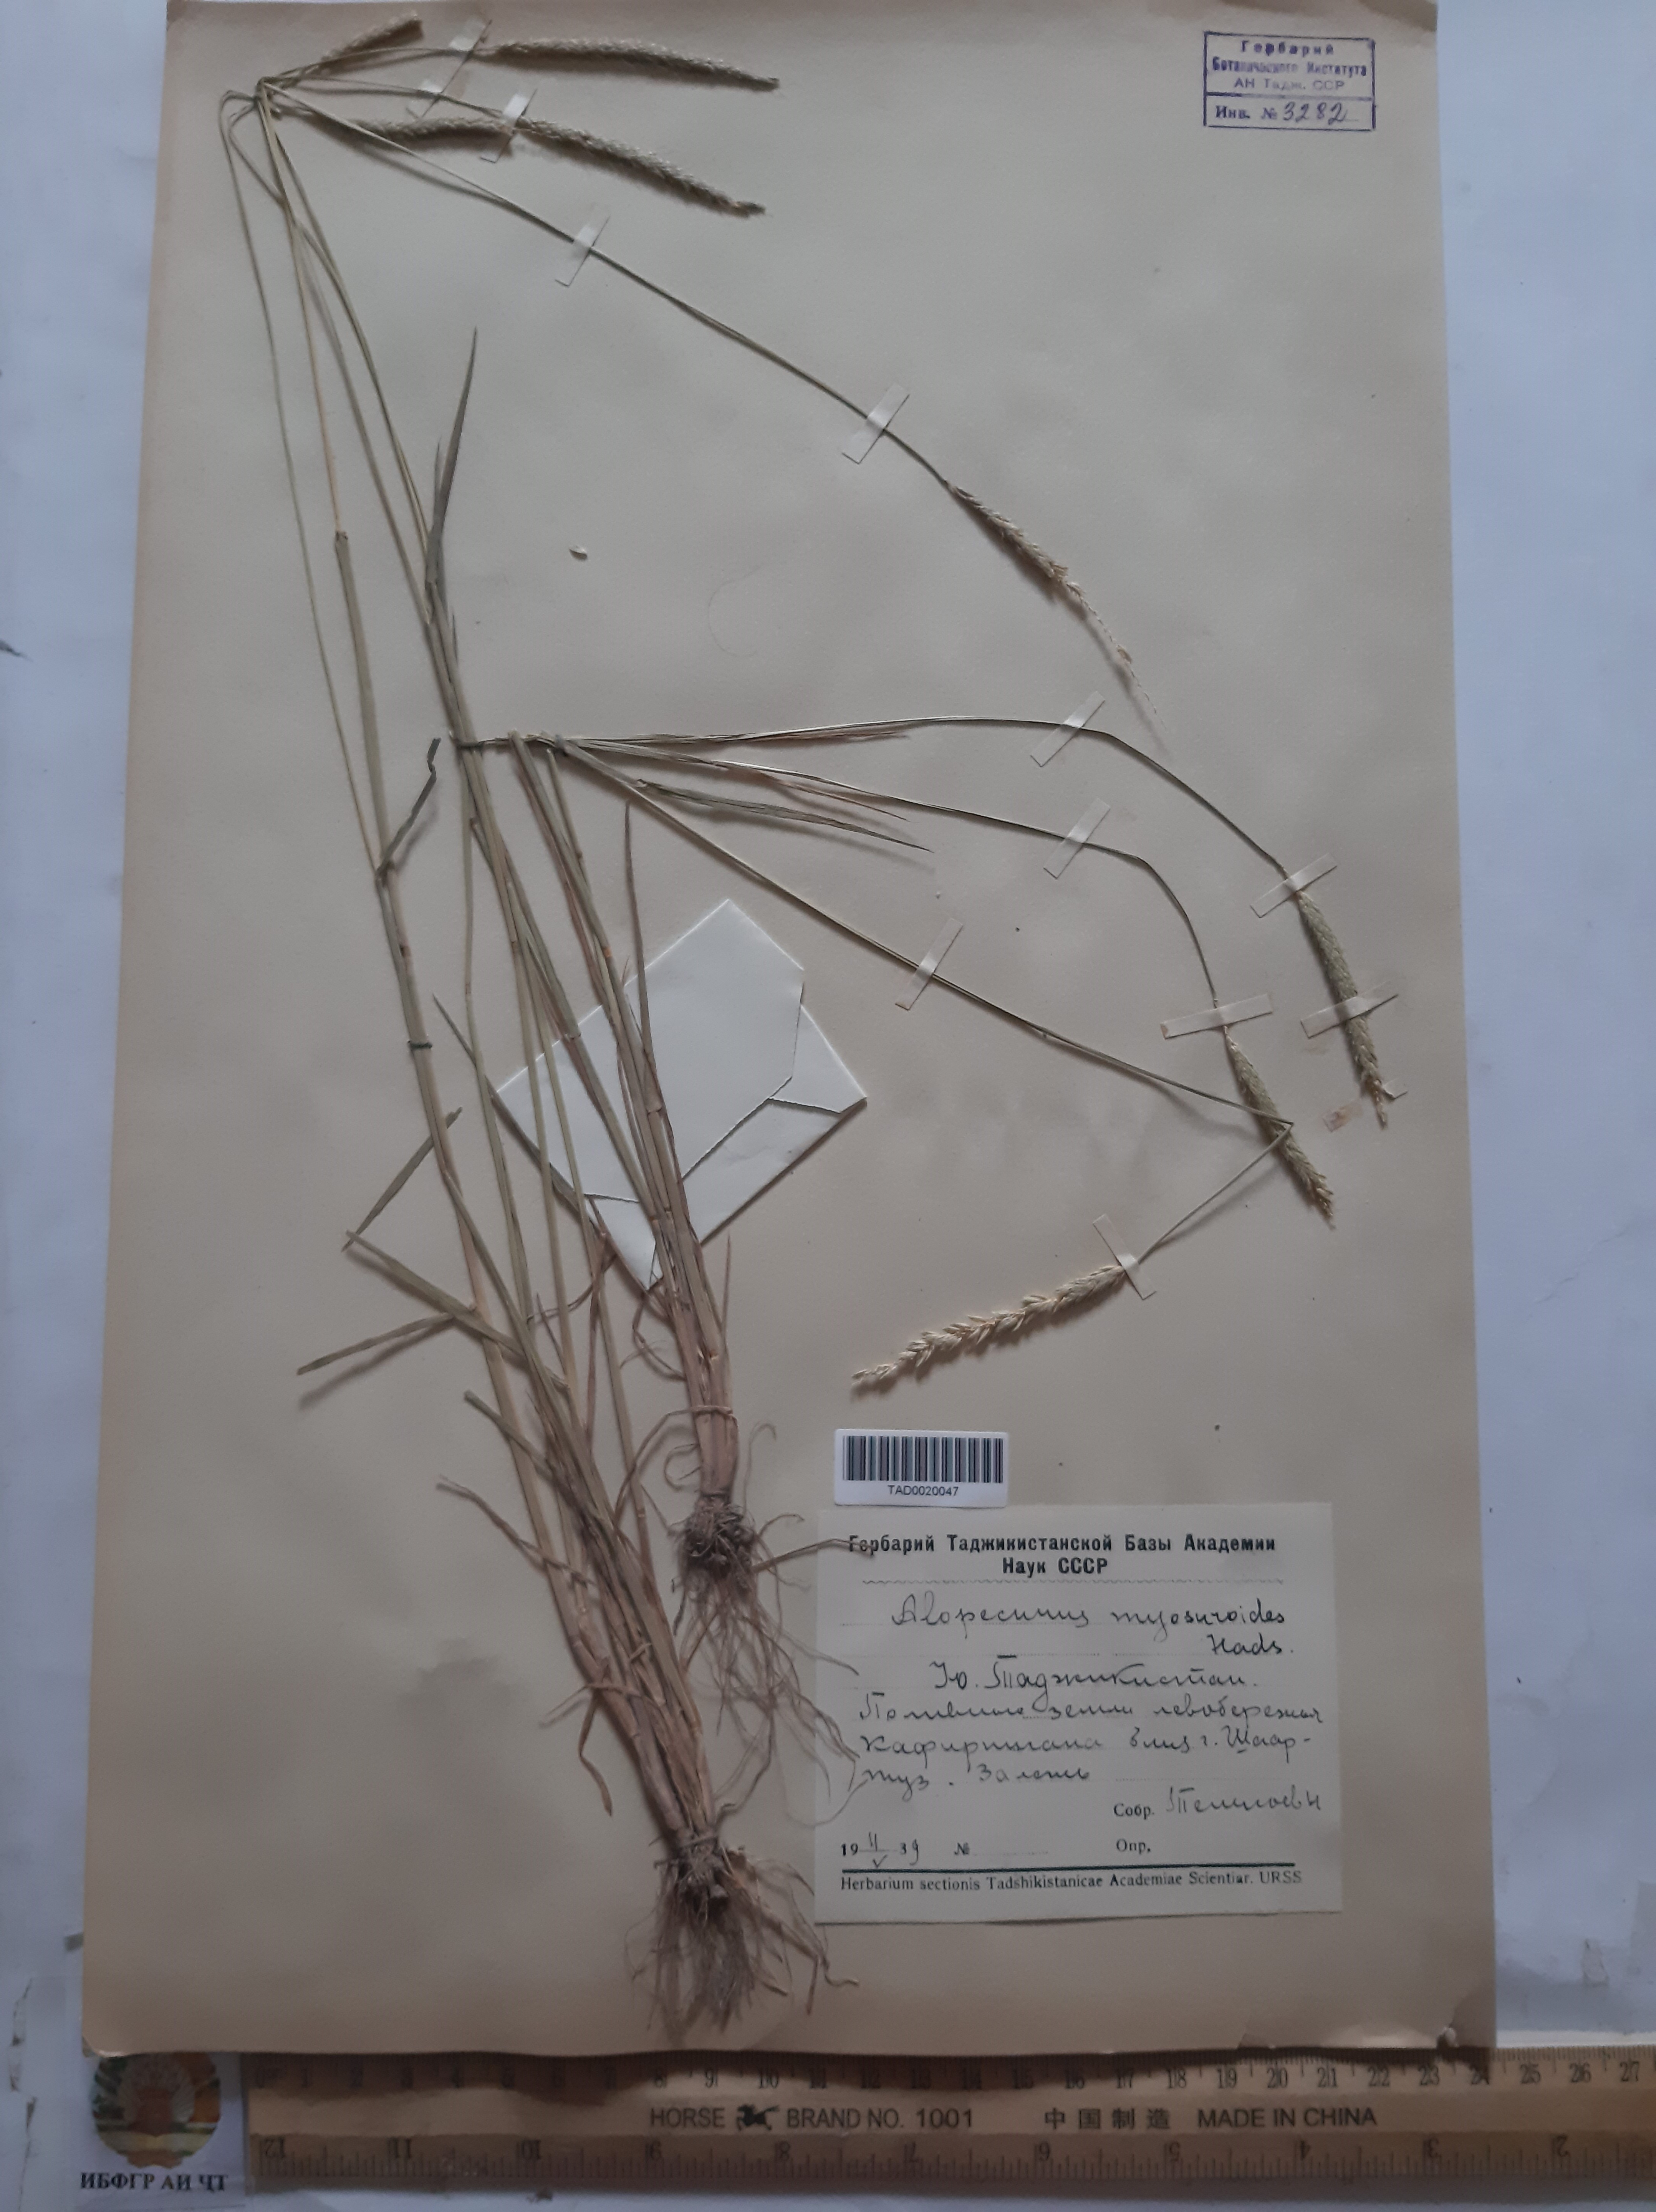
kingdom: Plantae
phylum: Tracheophyta
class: Liliopsida
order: Poales
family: Poaceae
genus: Alopecurus
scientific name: Alopecurus myosuroides
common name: Black-grass
